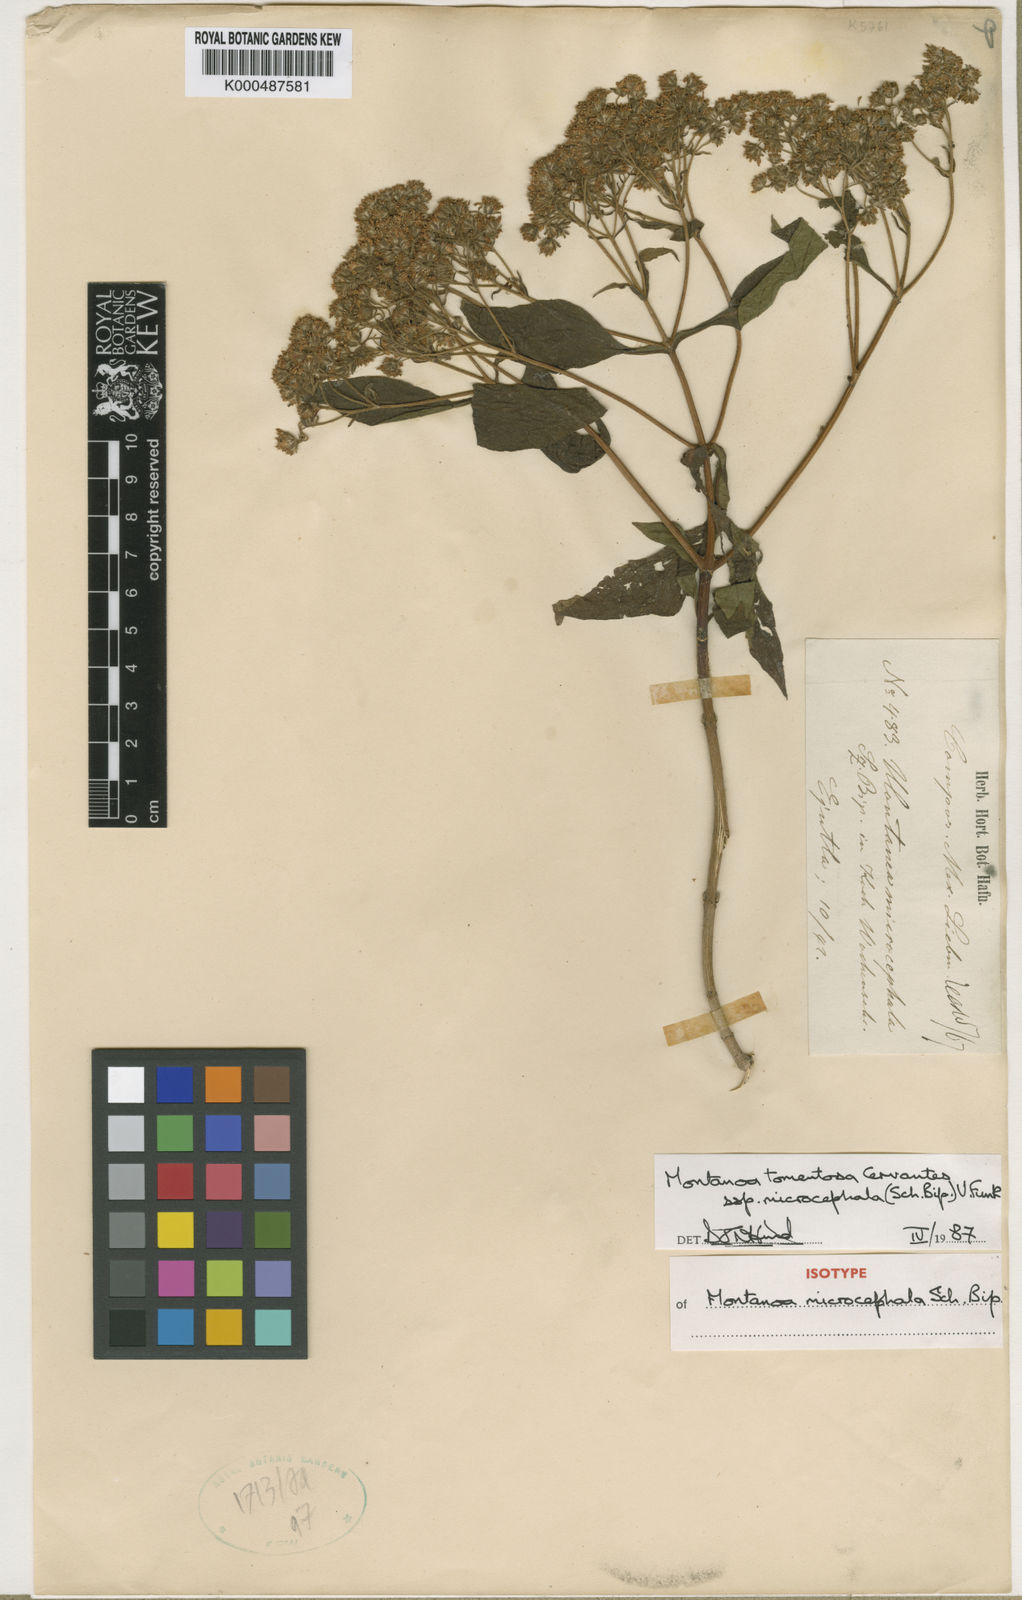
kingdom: Plantae
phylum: Tracheophyta
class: Magnoliopsida
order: Asterales
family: Asteraceae
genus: Montanoa
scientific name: Montanoa tomentosa
